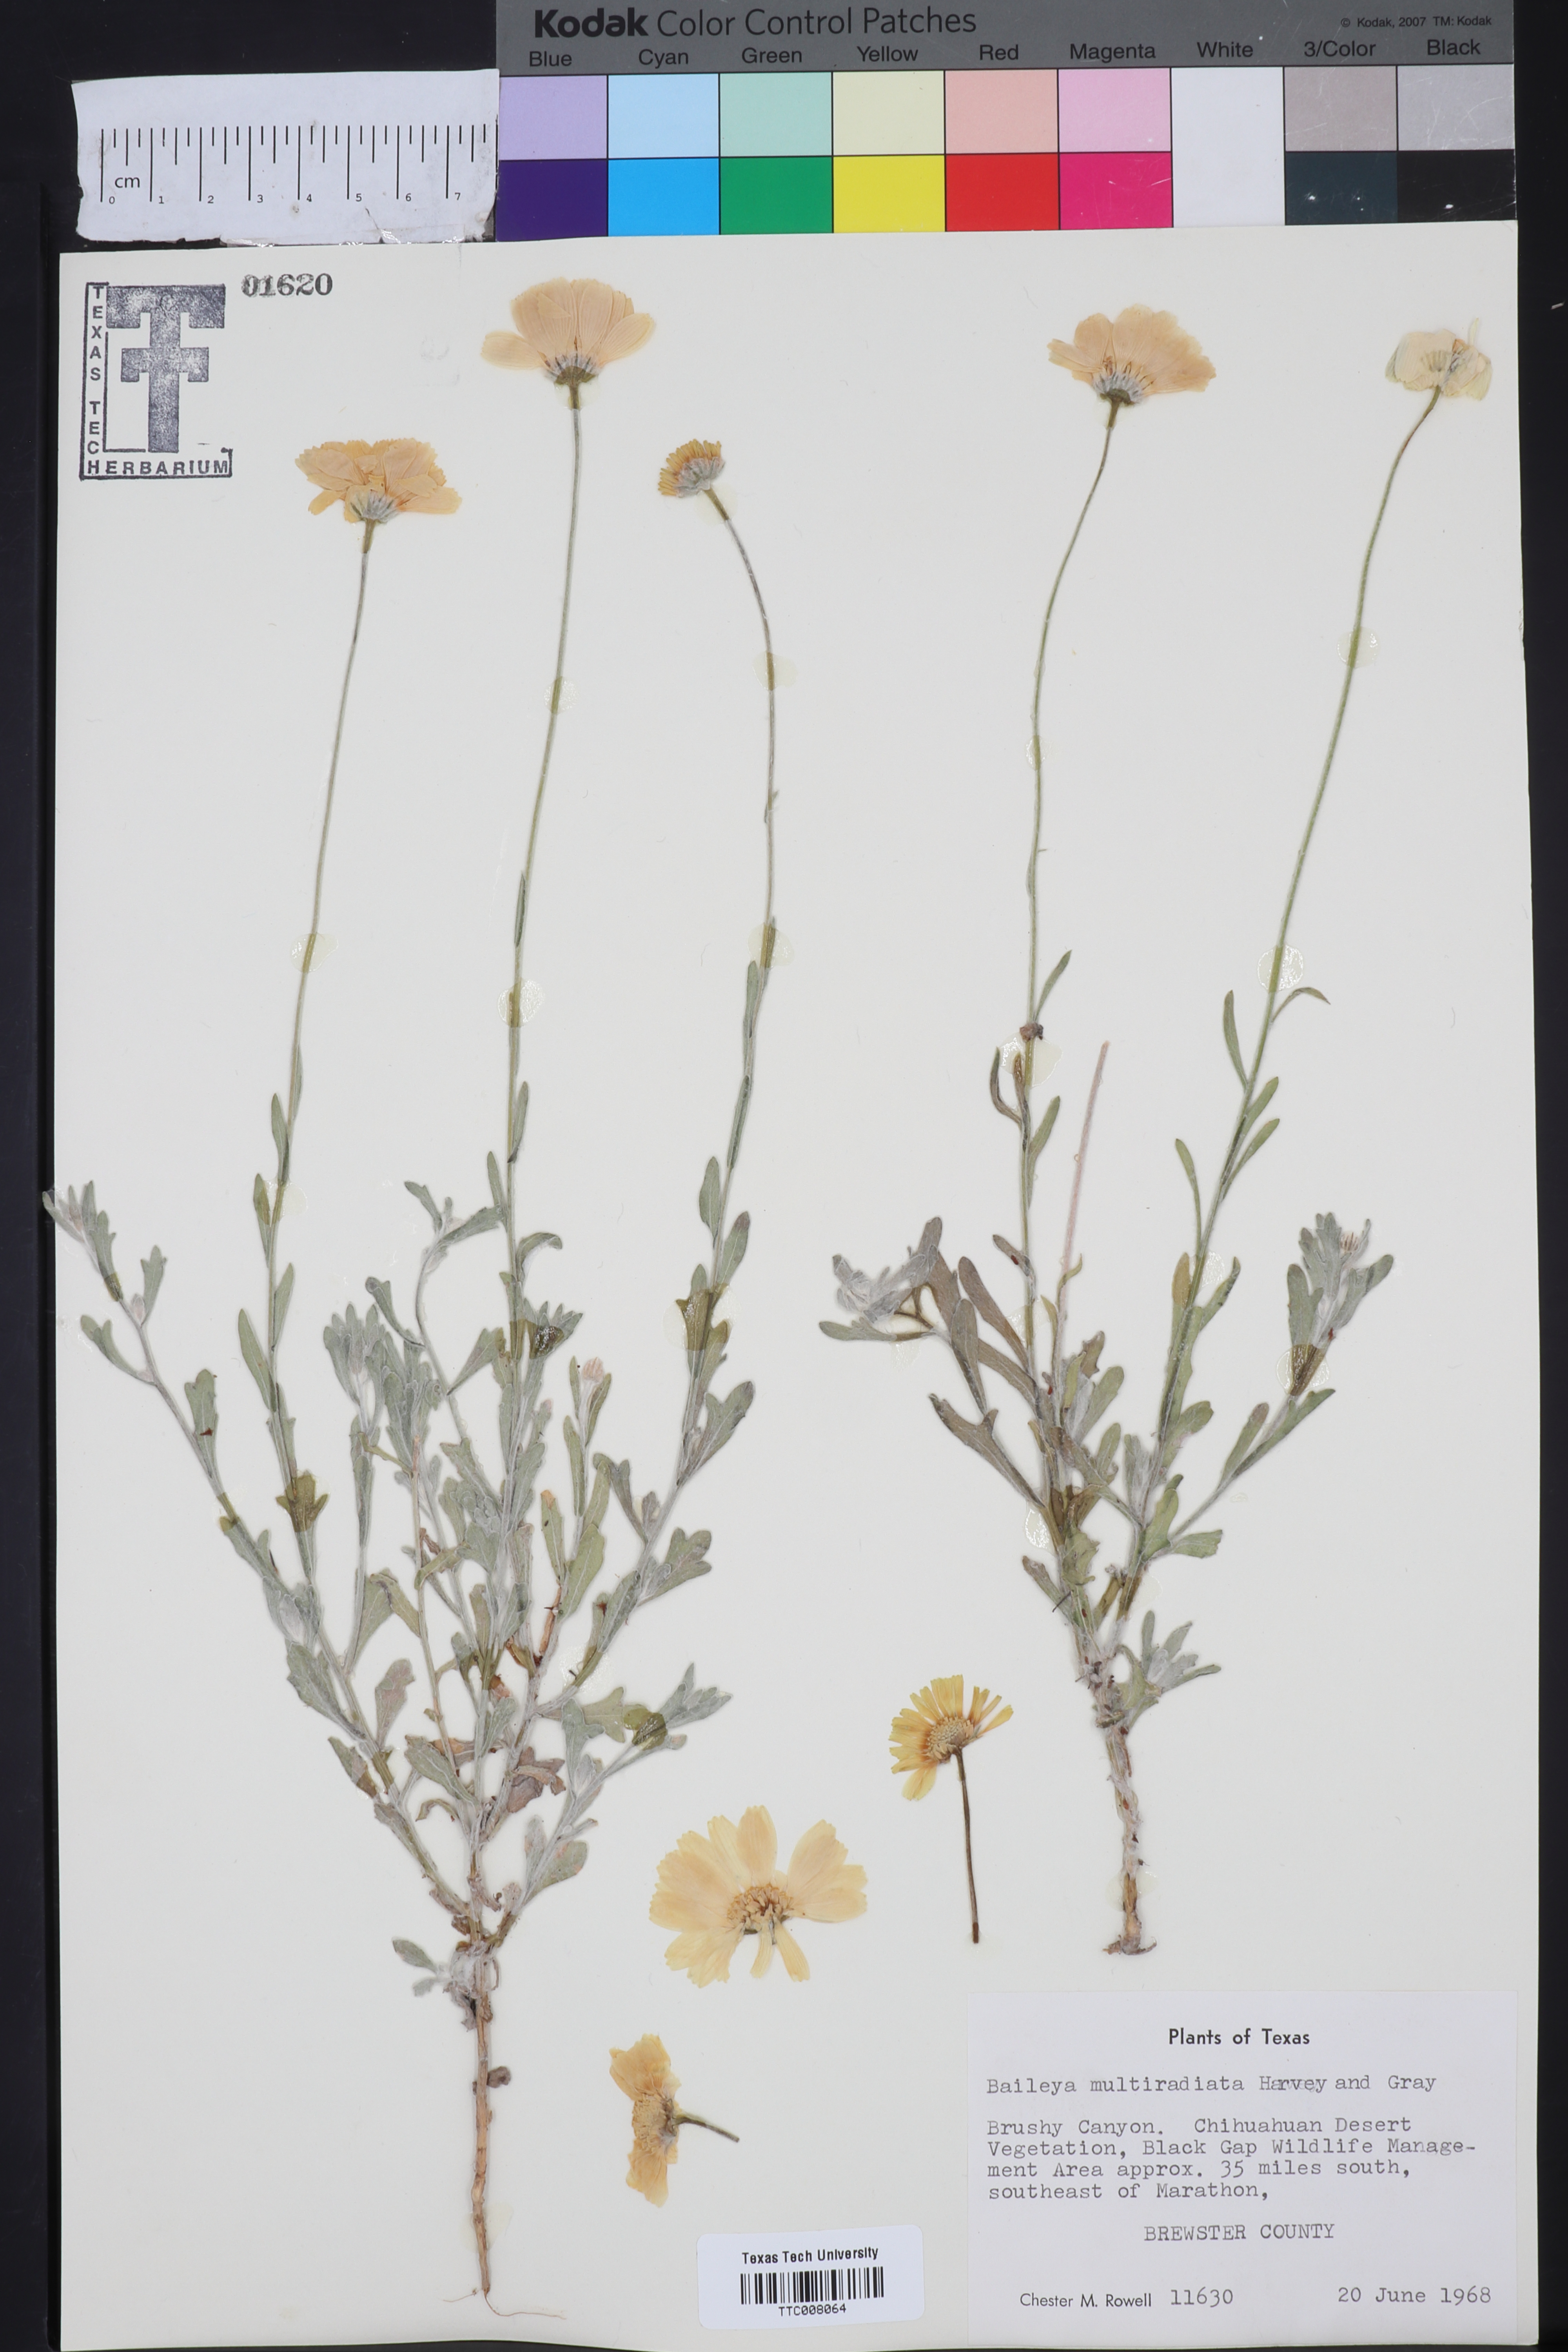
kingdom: Plantae
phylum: Tracheophyta
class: Magnoliopsida
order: Asterales
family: Asteraceae
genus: Baileya
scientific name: Baileya multiradiata
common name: Desert-marigold
